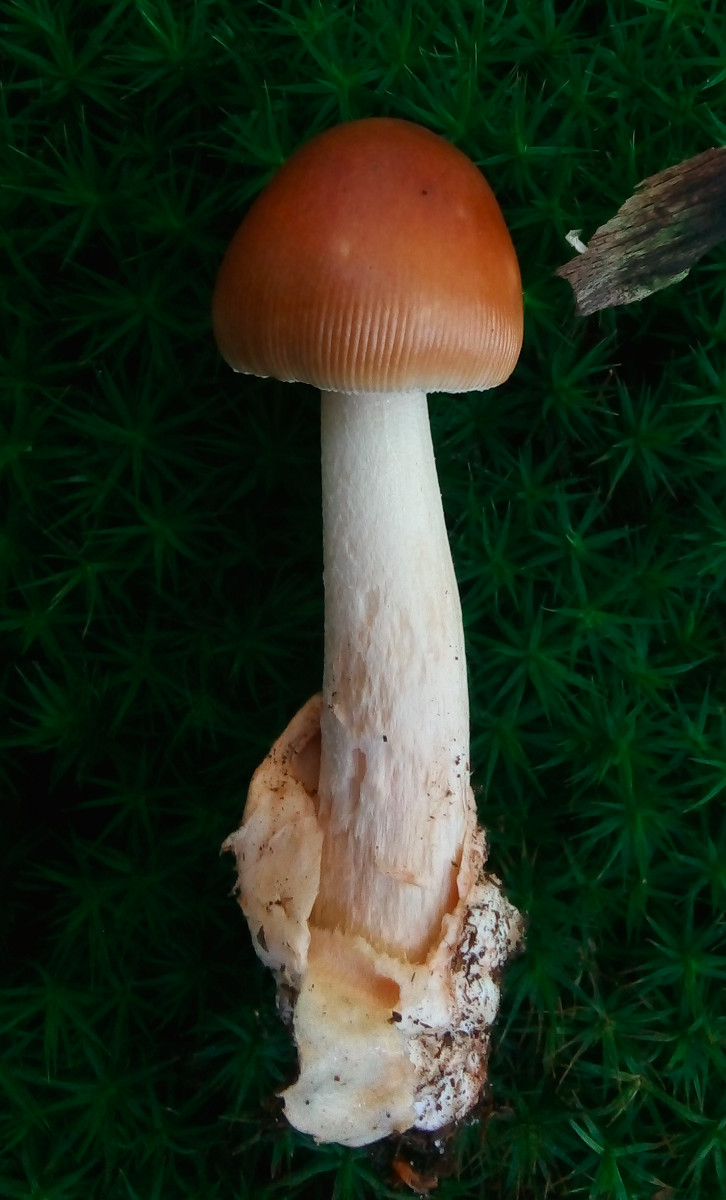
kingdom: Fungi
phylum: Basidiomycota
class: Agaricomycetes
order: Agaricales
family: Amanitaceae
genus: Amanita
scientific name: Amanita fulva
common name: brun kam-fluesvamp
